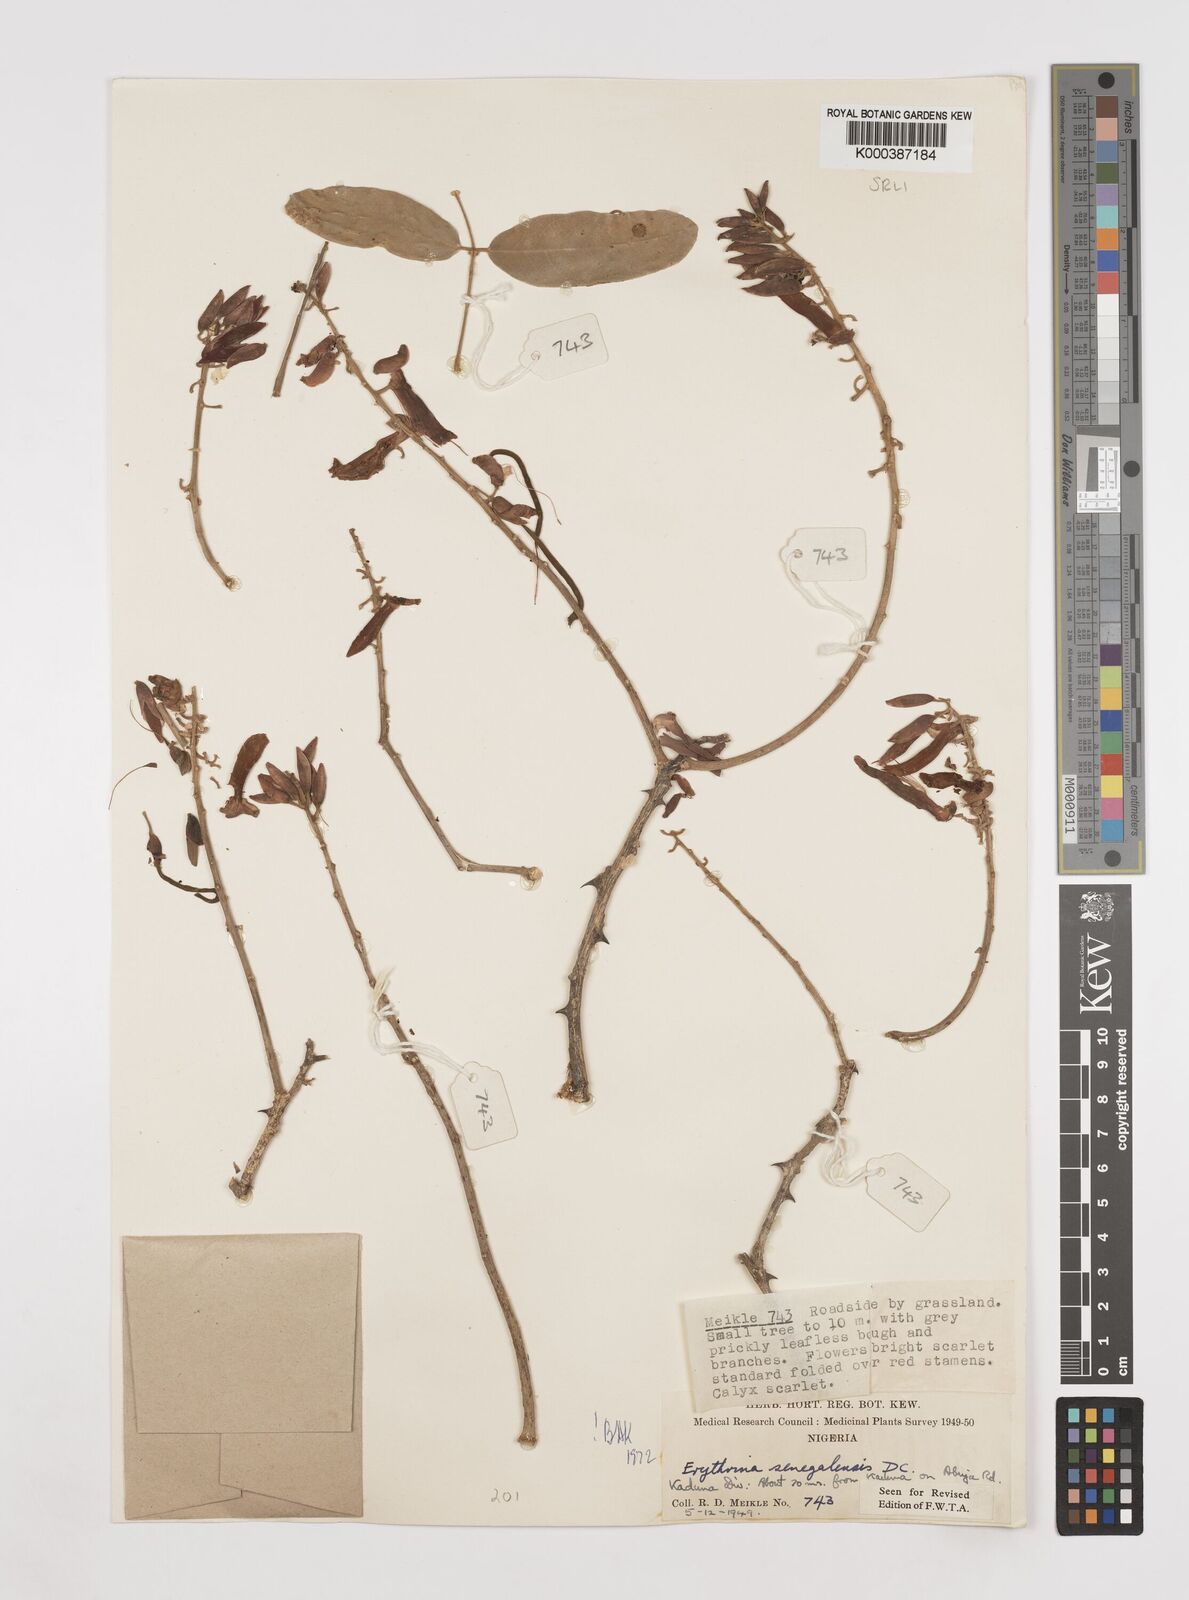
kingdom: Plantae
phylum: Tracheophyta
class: Magnoliopsida
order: Fabales
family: Fabaceae
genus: Erythrina
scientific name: Erythrina senegalensis
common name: Senegal coraltree
